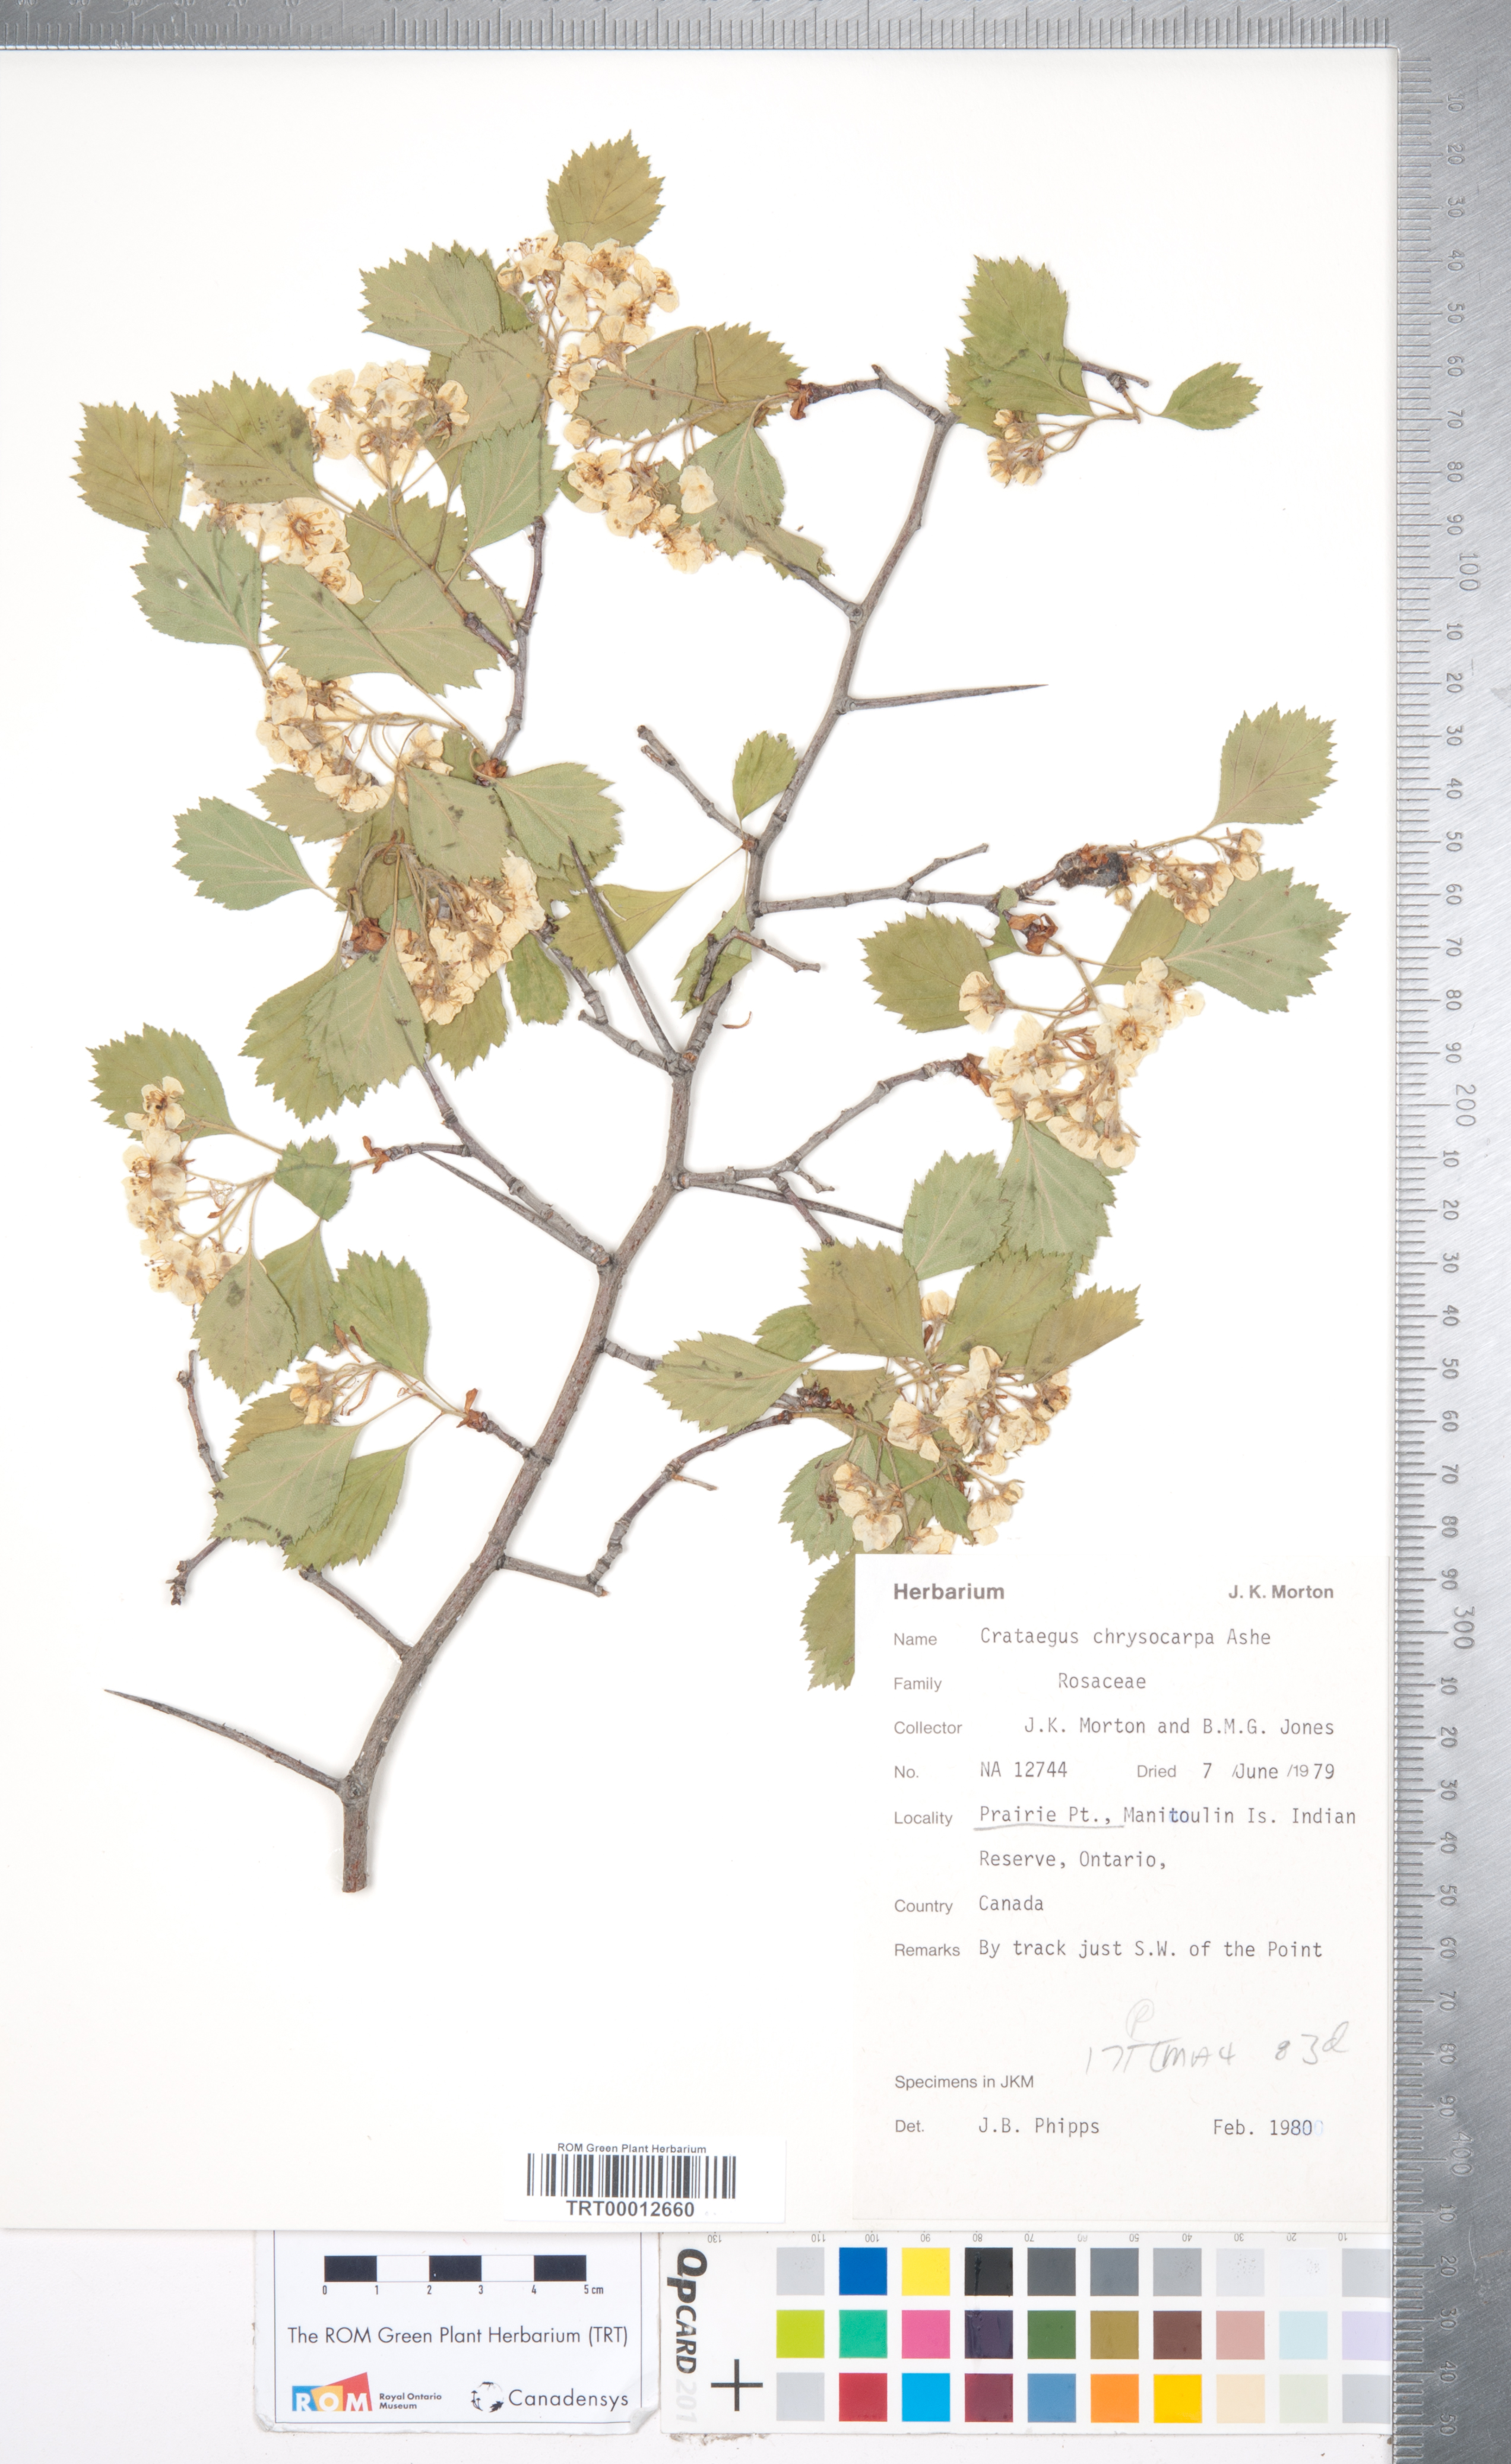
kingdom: Plantae
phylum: Tracheophyta
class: Magnoliopsida
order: Rosales
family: Rosaceae
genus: Crataegus
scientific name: Crataegus chrysocarpa
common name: Fire-berry hawthorn
